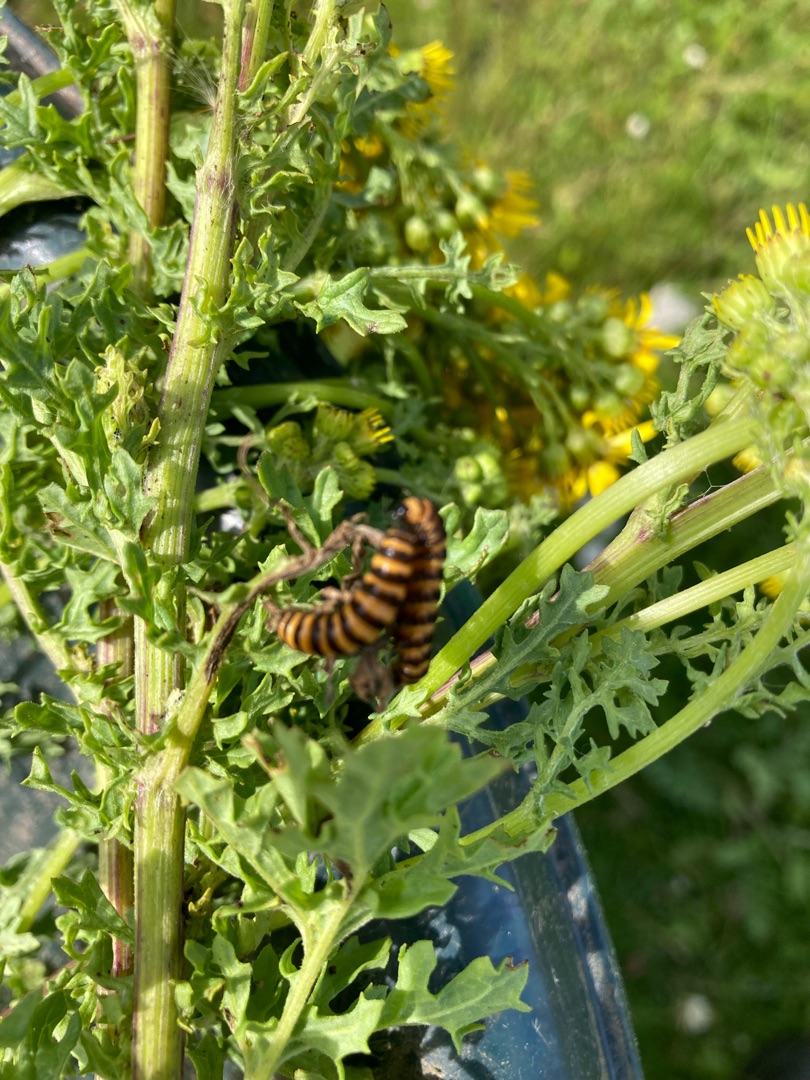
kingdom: Animalia
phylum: Arthropoda
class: Insecta
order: Lepidoptera
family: Erebidae
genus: Tyria
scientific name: Tyria jacobaeae
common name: Blodplet
